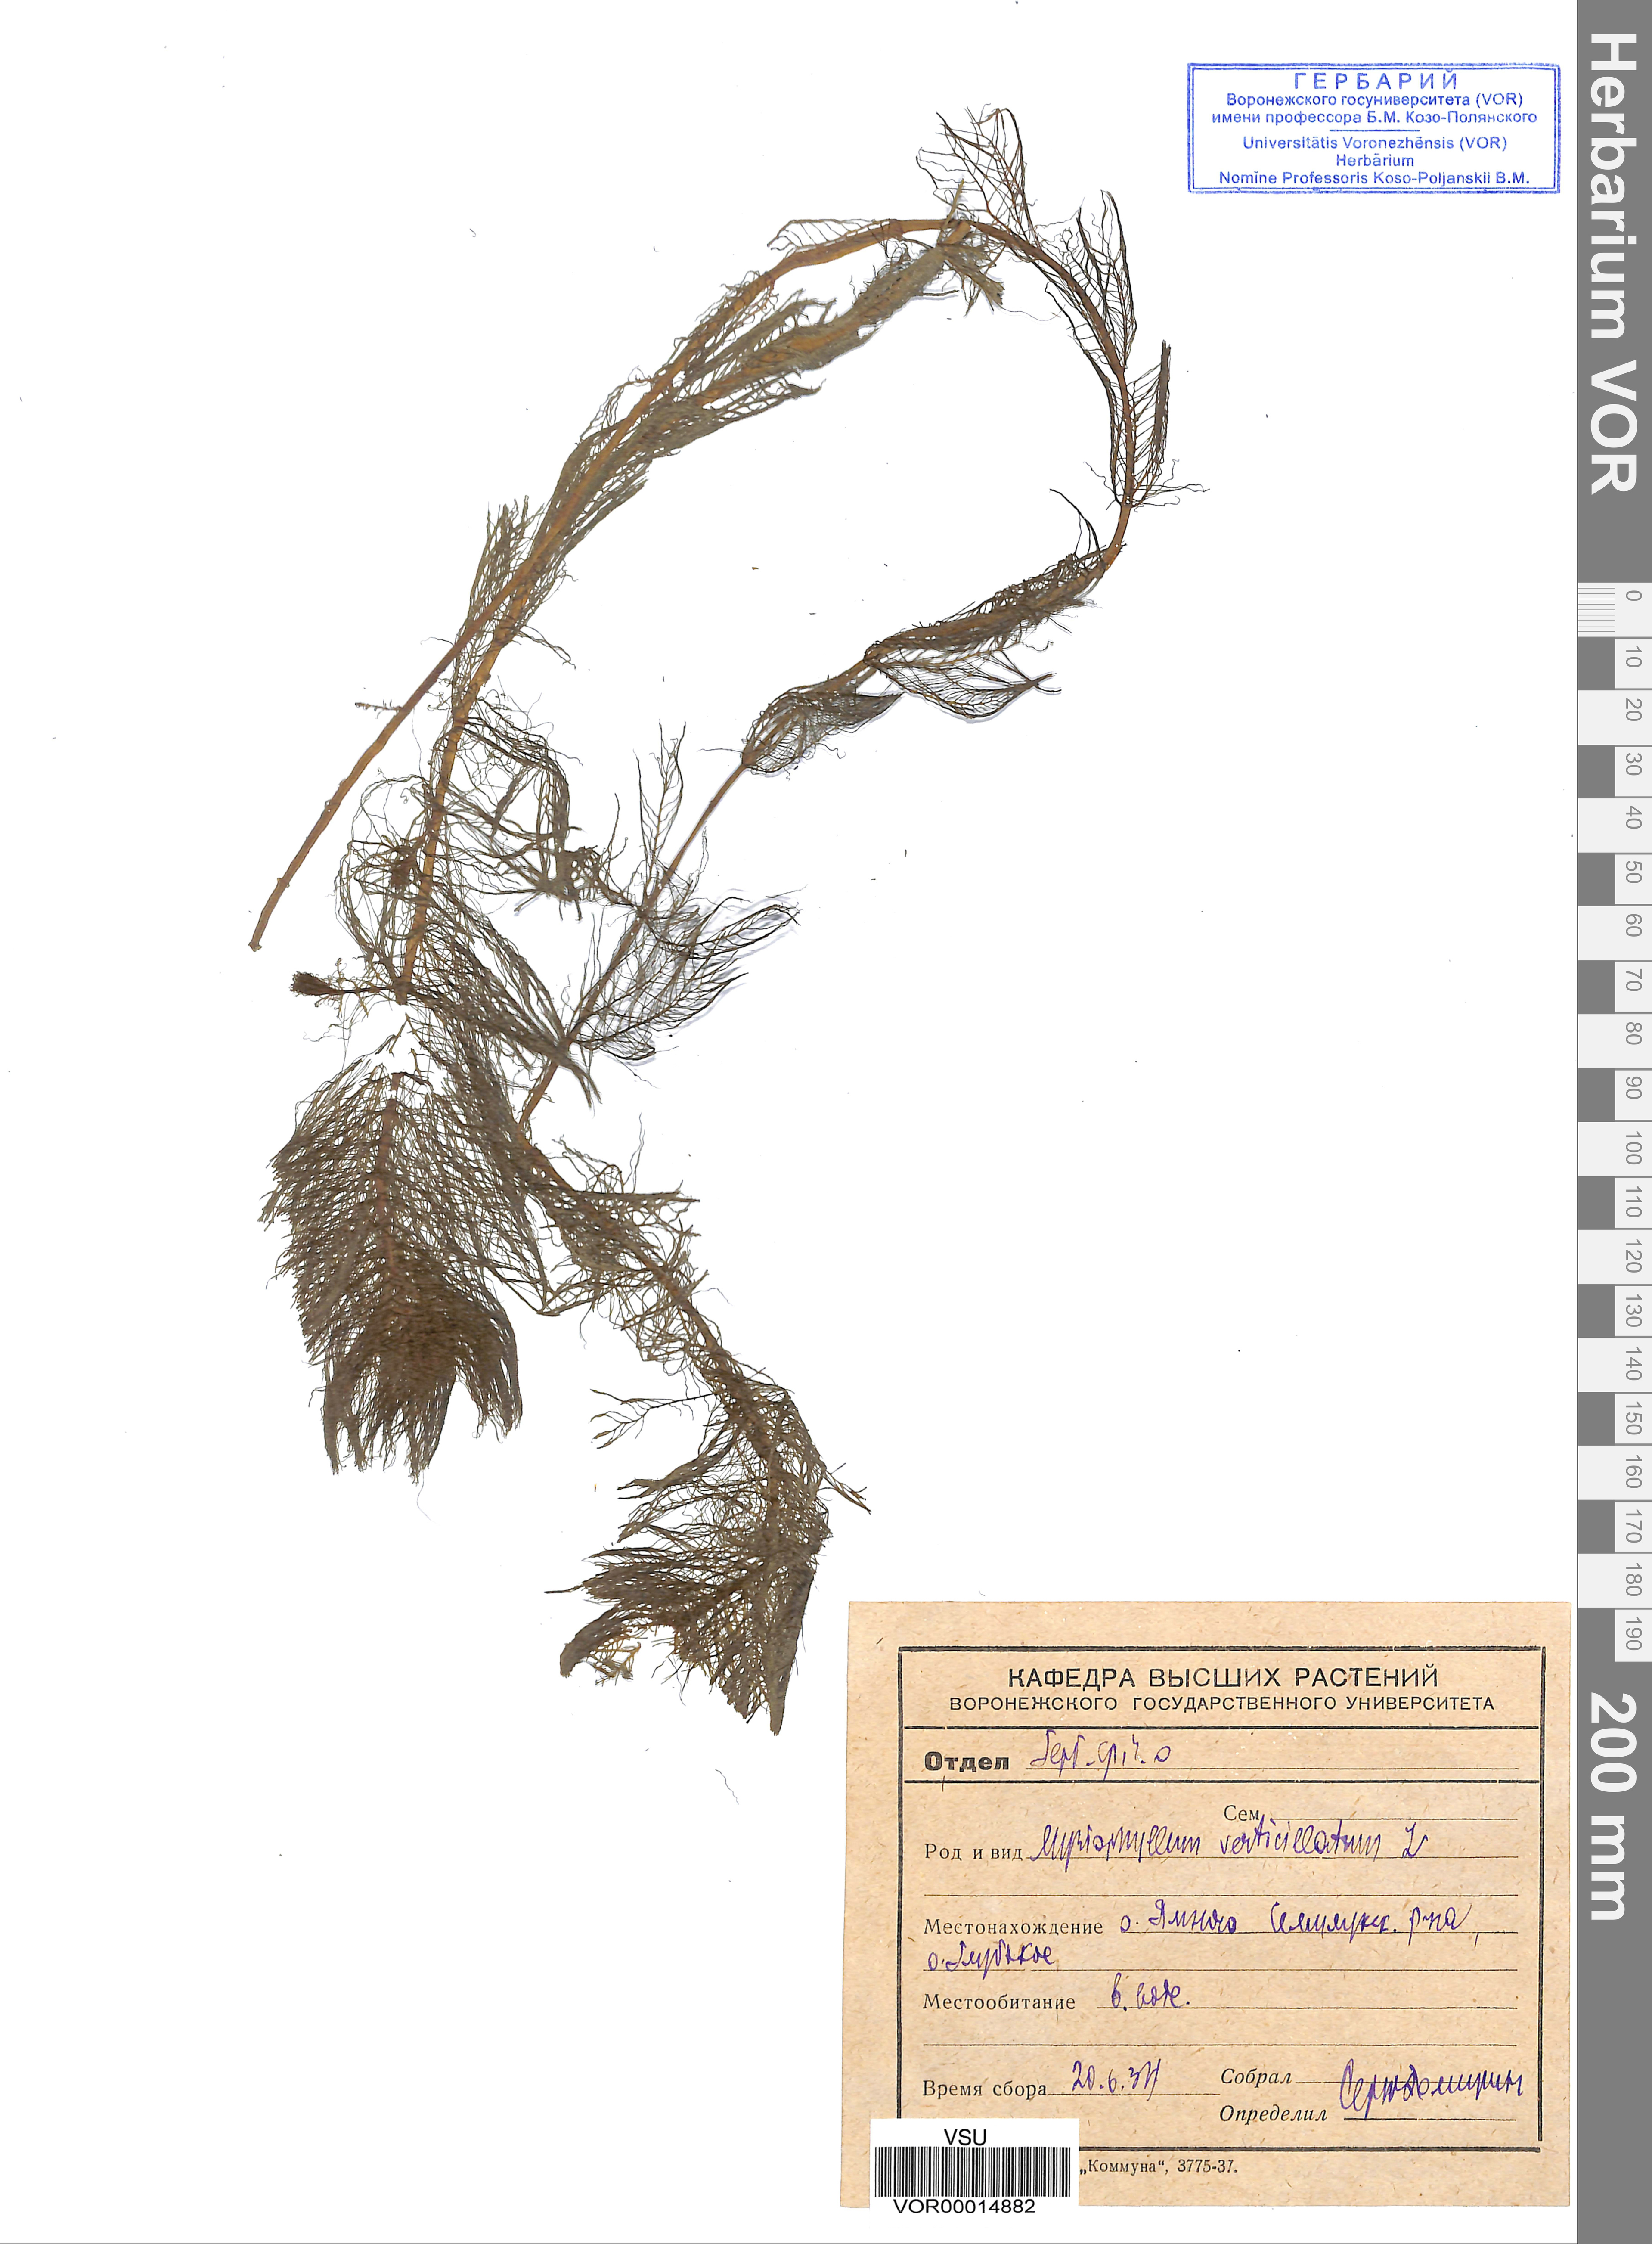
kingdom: Plantae
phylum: Tracheophyta
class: Magnoliopsida
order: Saxifragales
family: Haloragaceae
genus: Myriophyllum
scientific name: Myriophyllum verticillatum
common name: Whorled water-milfoil
